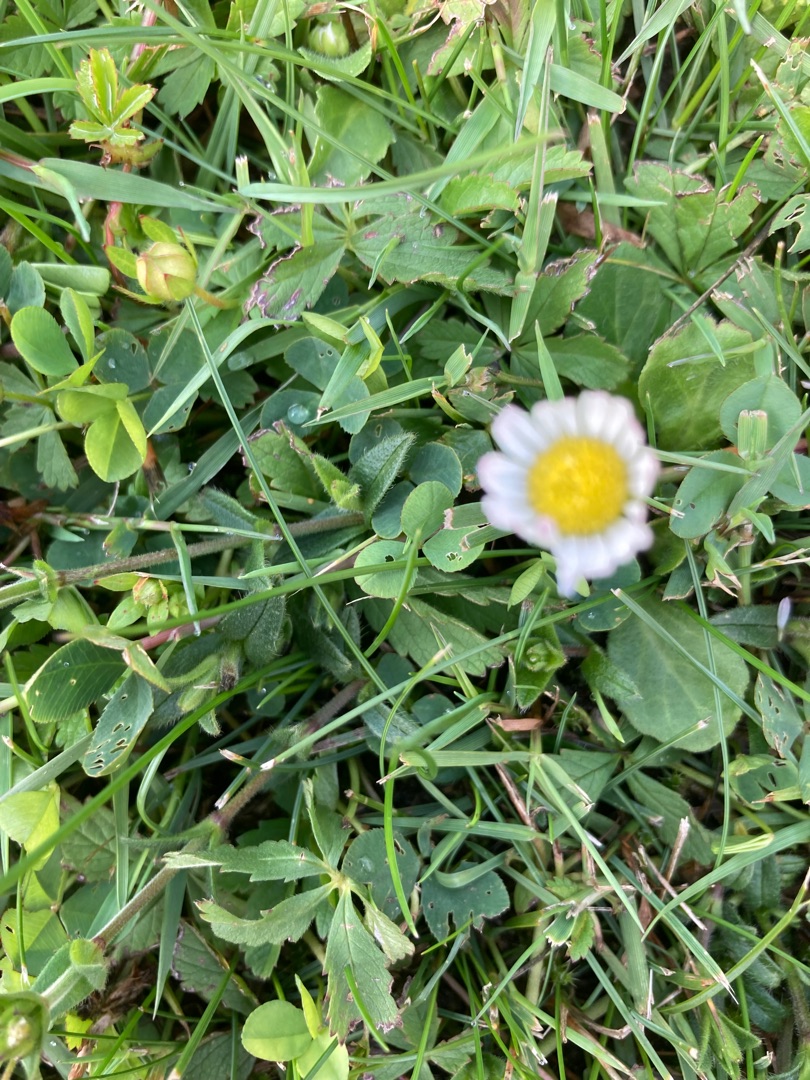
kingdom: Plantae
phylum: Tracheophyta
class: Magnoliopsida
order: Asterales
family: Asteraceae
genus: Bellis
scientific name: Bellis perennis
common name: Tusindfryd
